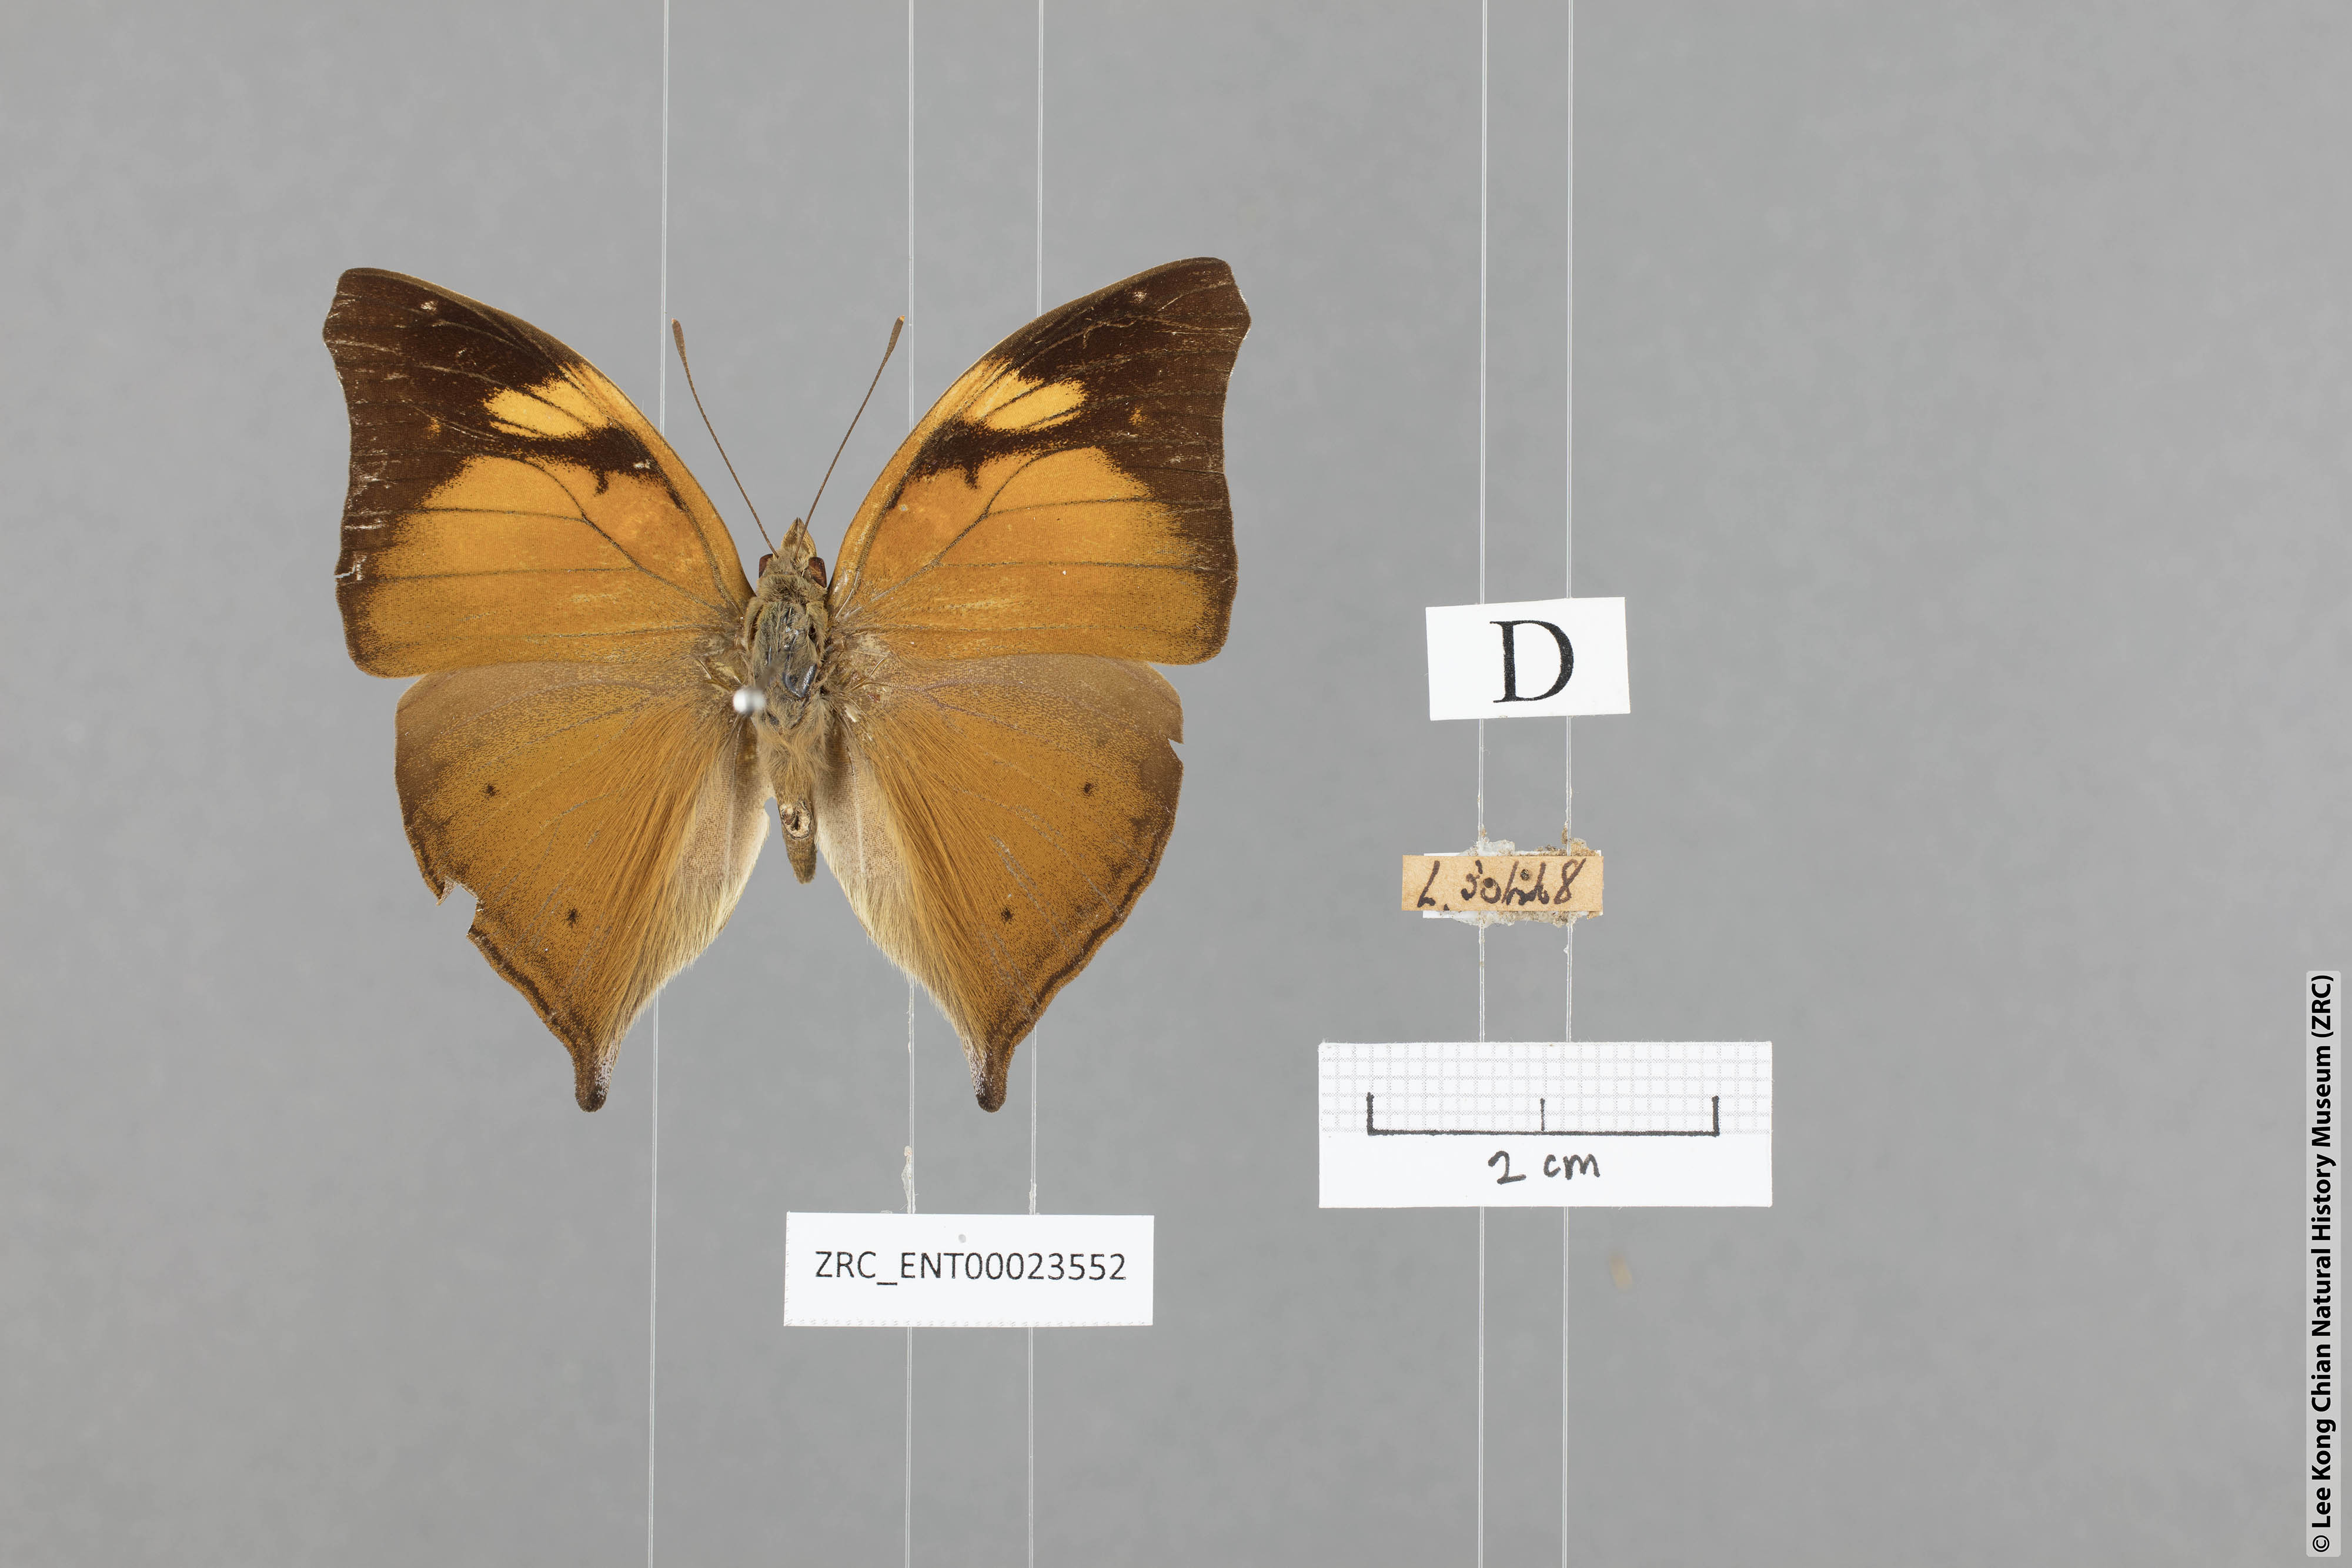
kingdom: Animalia
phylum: Arthropoda
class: Insecta
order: Lepidoptera
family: Nymphalidae
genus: Doleschallia
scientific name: Doleschallia bisaltide
